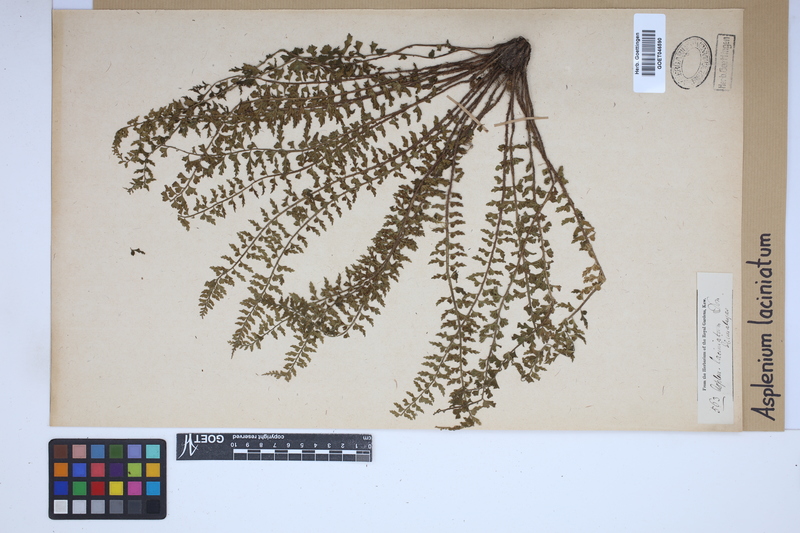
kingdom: Plantae
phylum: Tracheophyta
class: Polypodiopsida
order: Polypodiales
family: Aspleniaceae
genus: Asplenium
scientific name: Asplenium laciniatum
